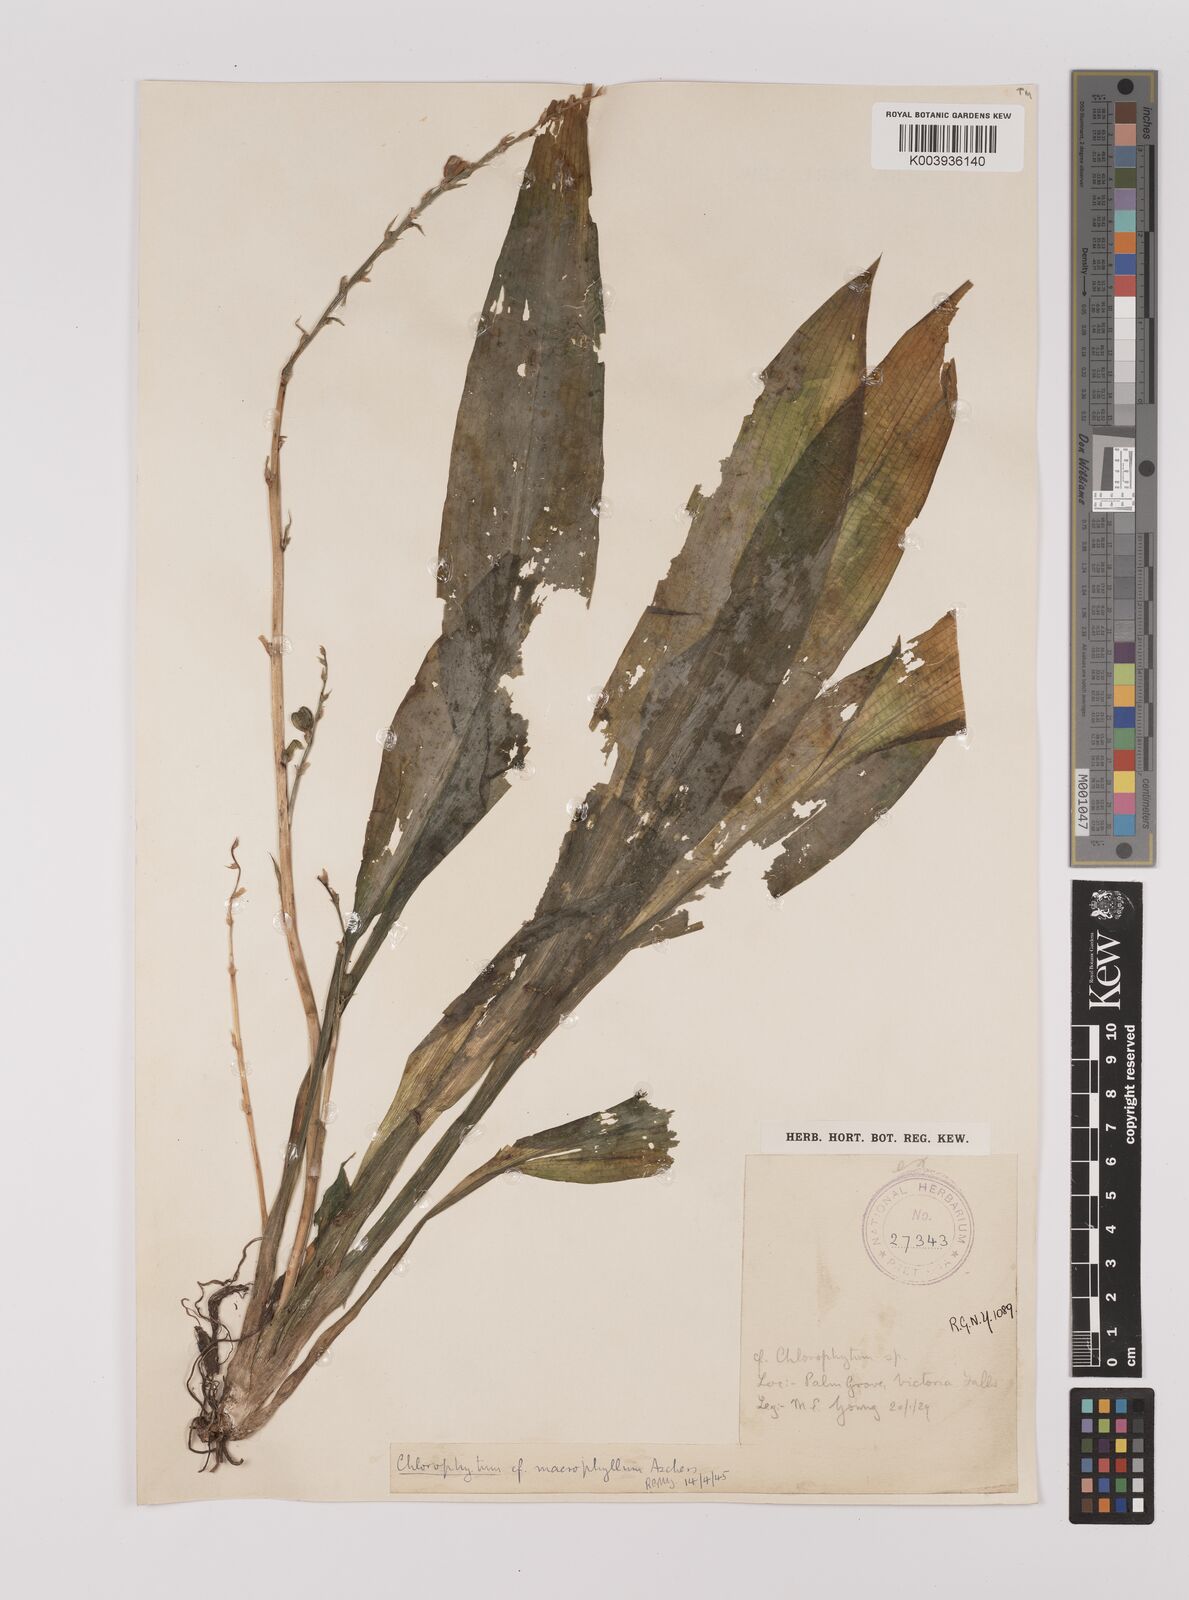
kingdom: Plantae
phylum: Tracheophyta
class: Liliopsida
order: Asparagales
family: Asparagaceae
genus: Chlorophytum
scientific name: Chlorophytum
